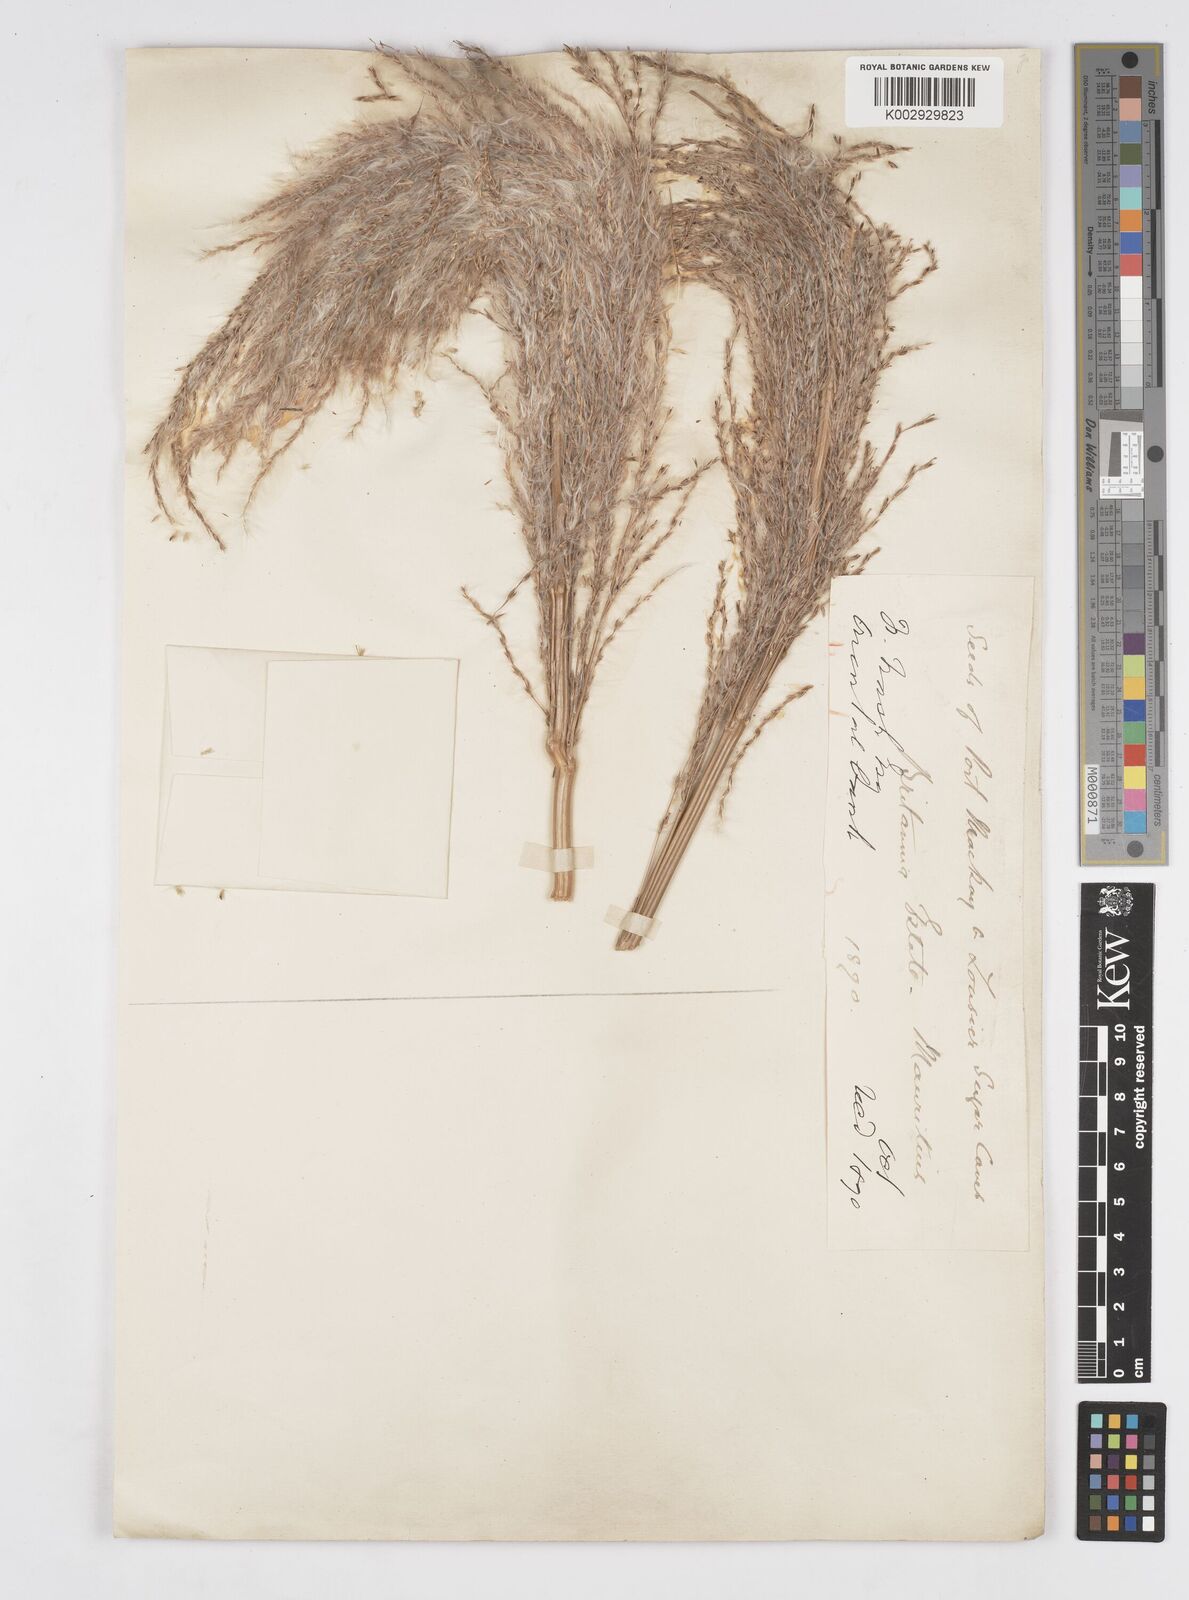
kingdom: Plantae
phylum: Tracheophyta
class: Liliopsida
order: Poales
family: Poaceae
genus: Saccharum
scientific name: Saccharum
